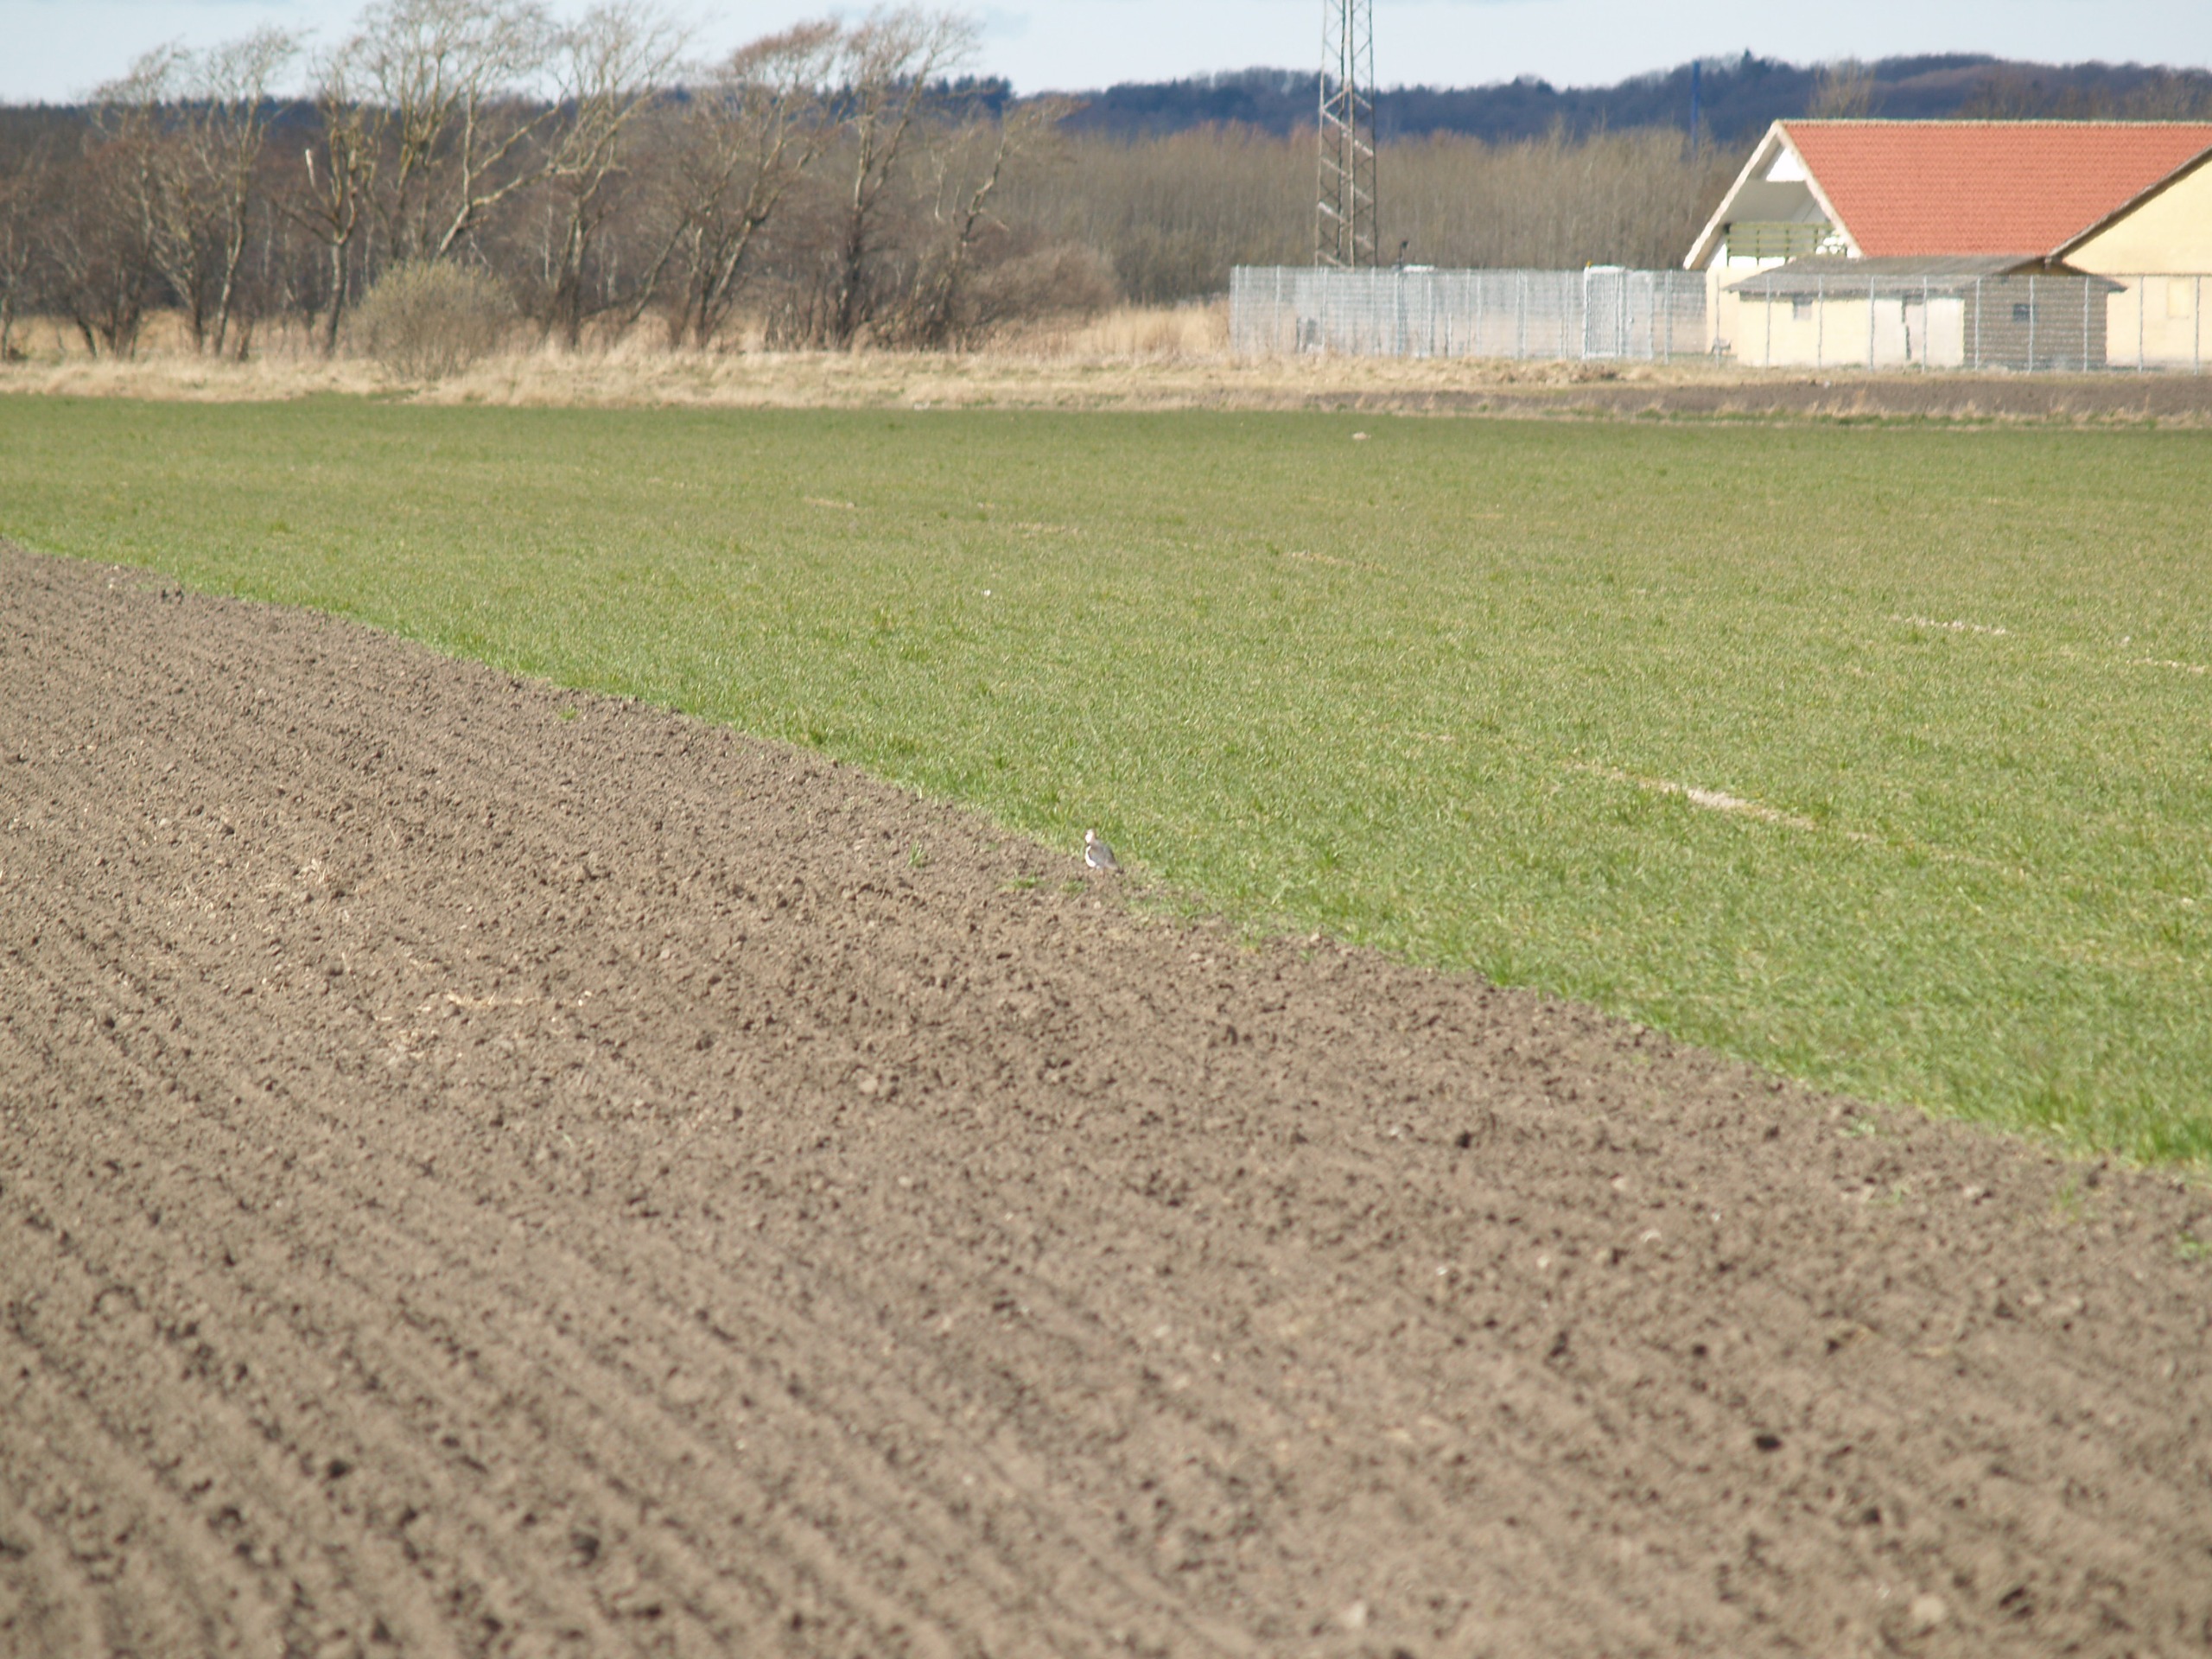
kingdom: Animalia
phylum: Chordata
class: Aves
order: Charadriiformes
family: Charadriidae
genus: Vanellus
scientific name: Vanellus vanellus
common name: Vibe
